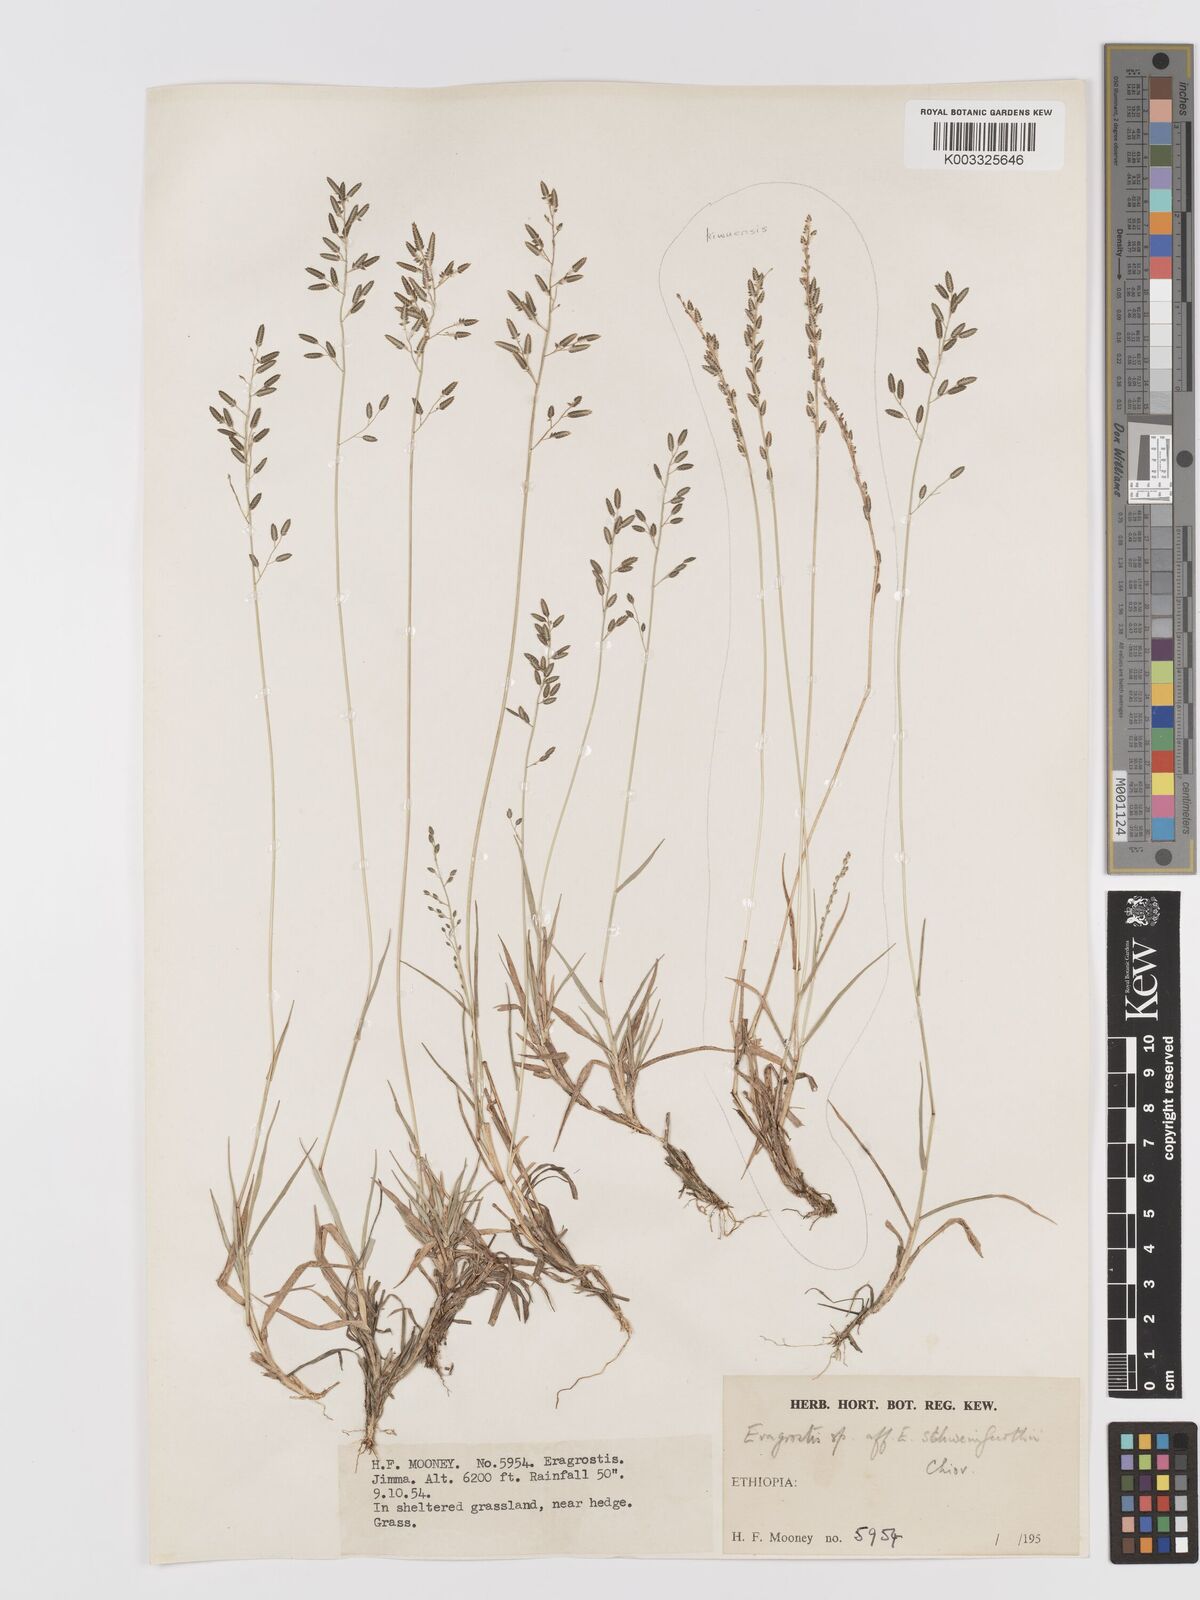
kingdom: Plantae
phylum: Tracheophyta
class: Liliopsida
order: Poales
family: Poaceae
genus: Eragrostis
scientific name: Eragrostis schweinfurthii
